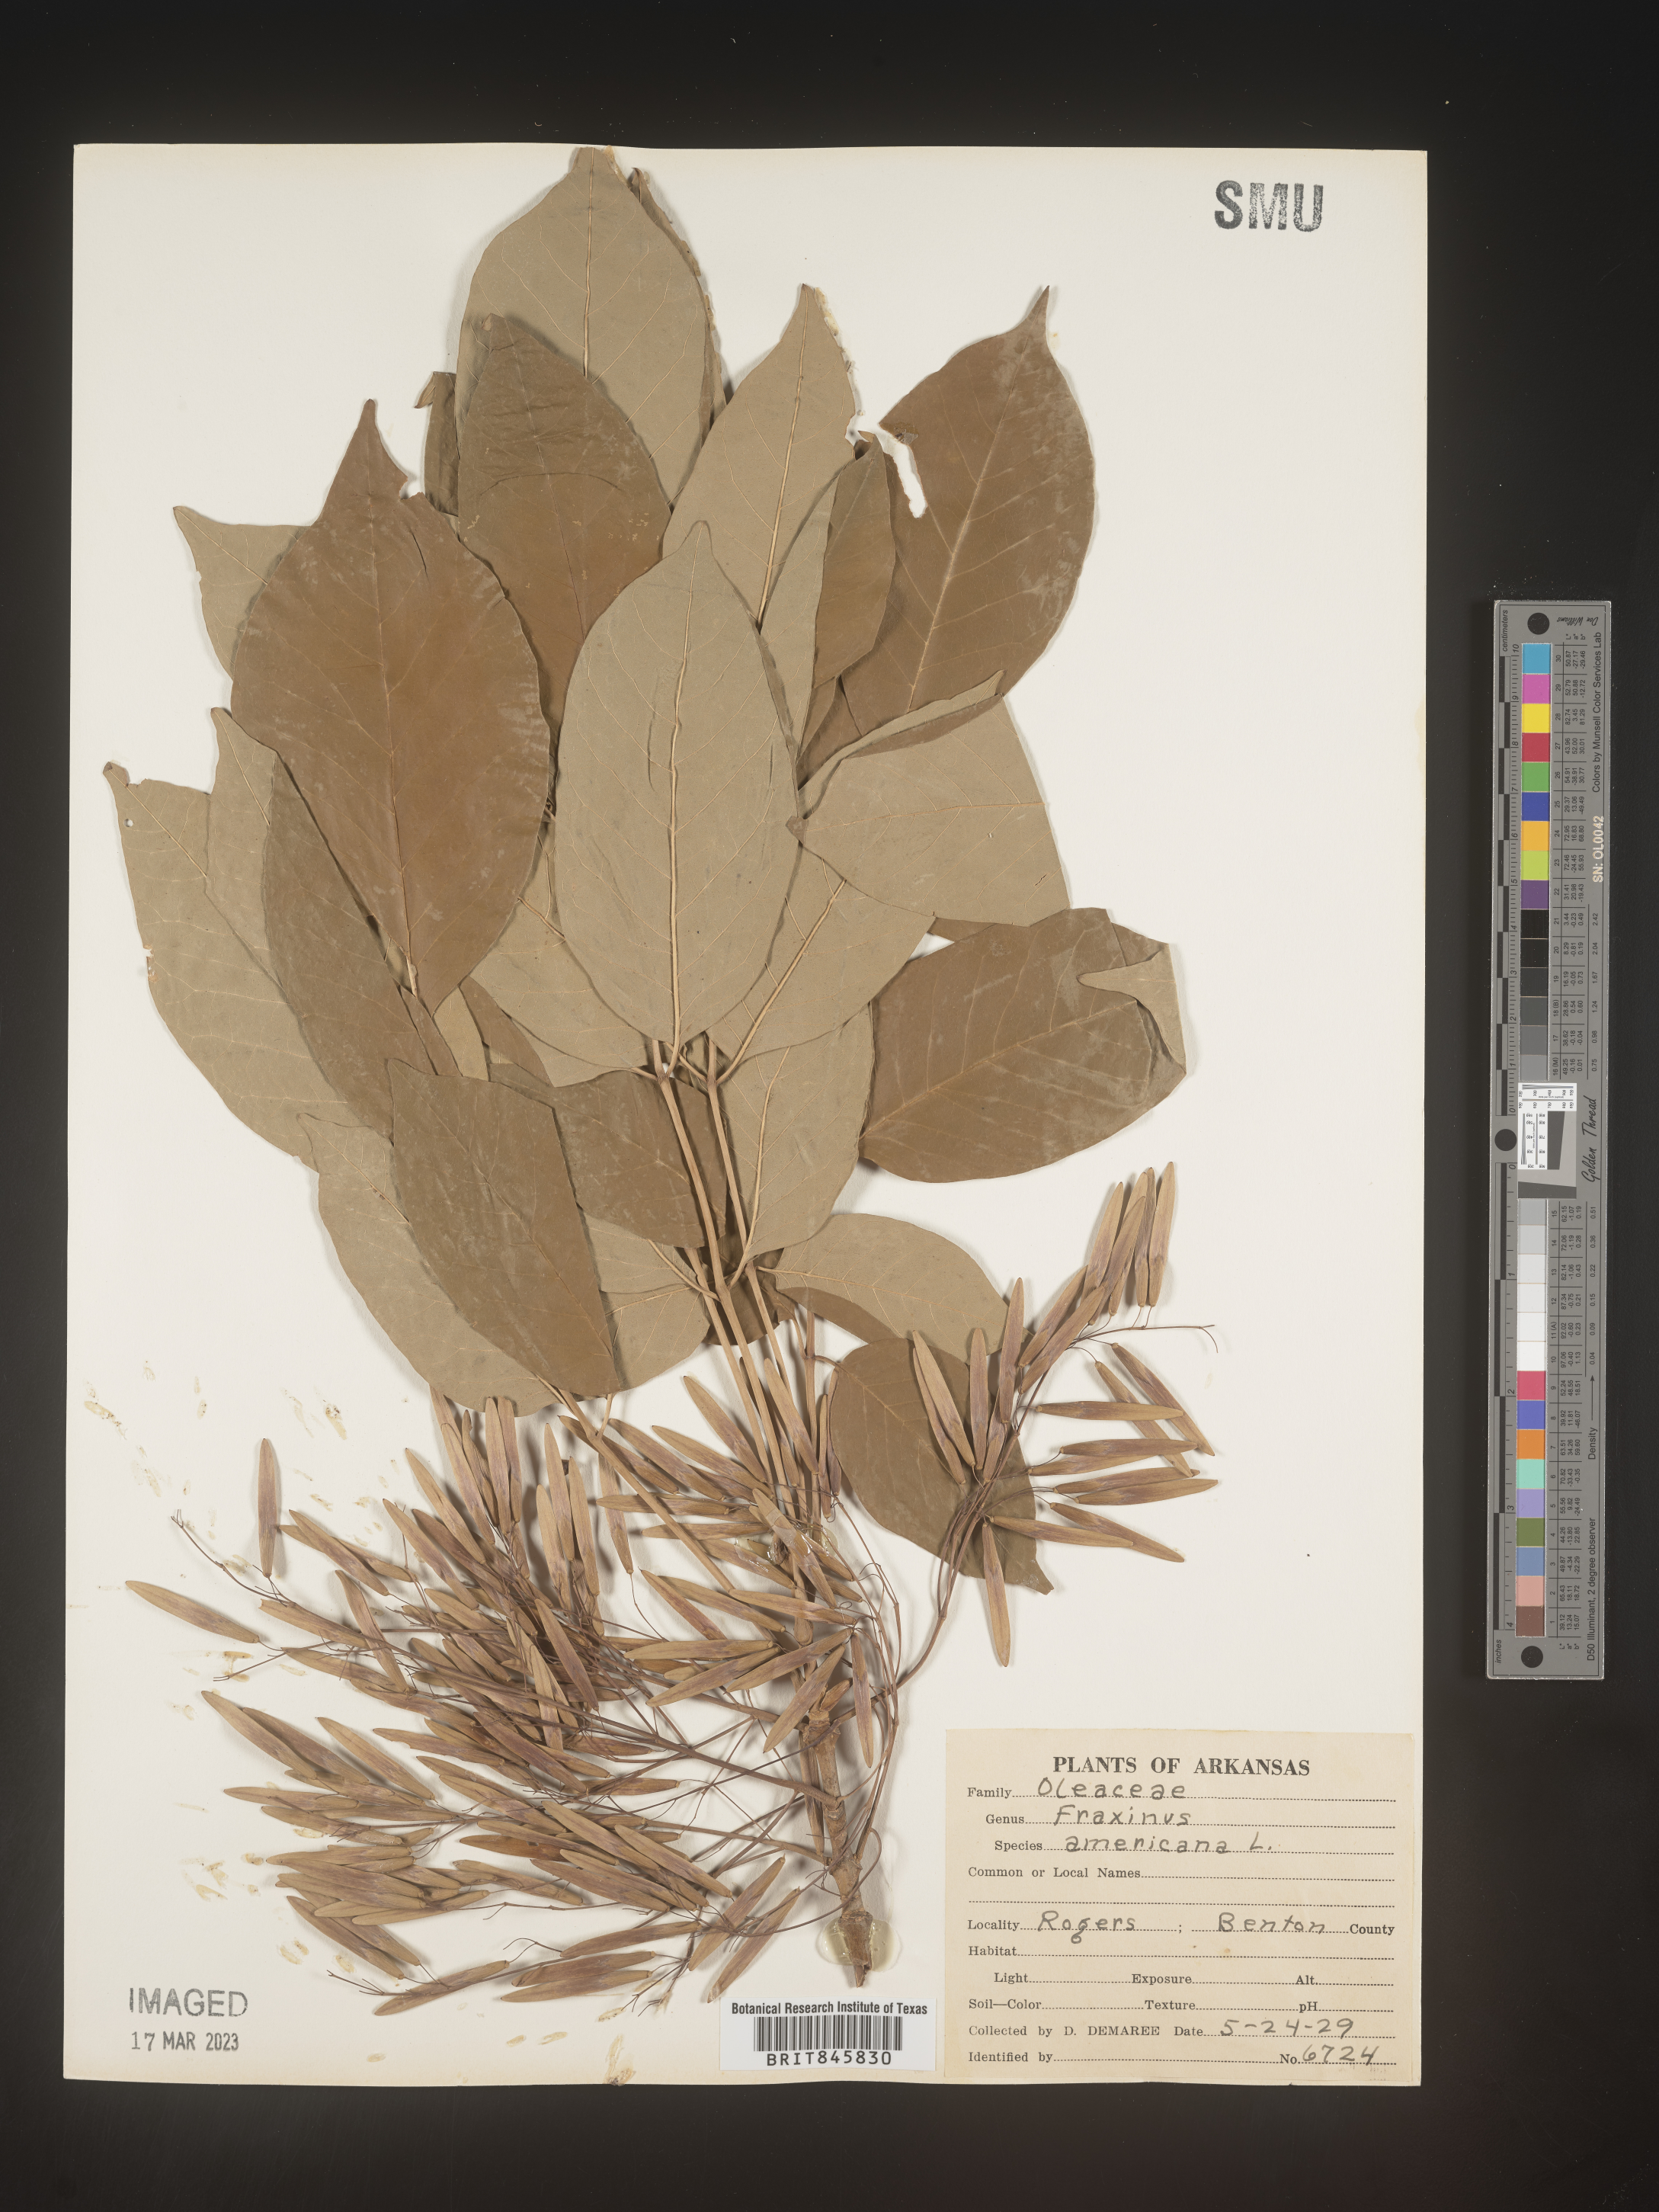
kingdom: Plantae
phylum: Tracheophyta
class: Magnoliopsida
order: Lamiales
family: Oleaceae
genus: Fraxinus
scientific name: Fraxinus americana
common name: White ash
